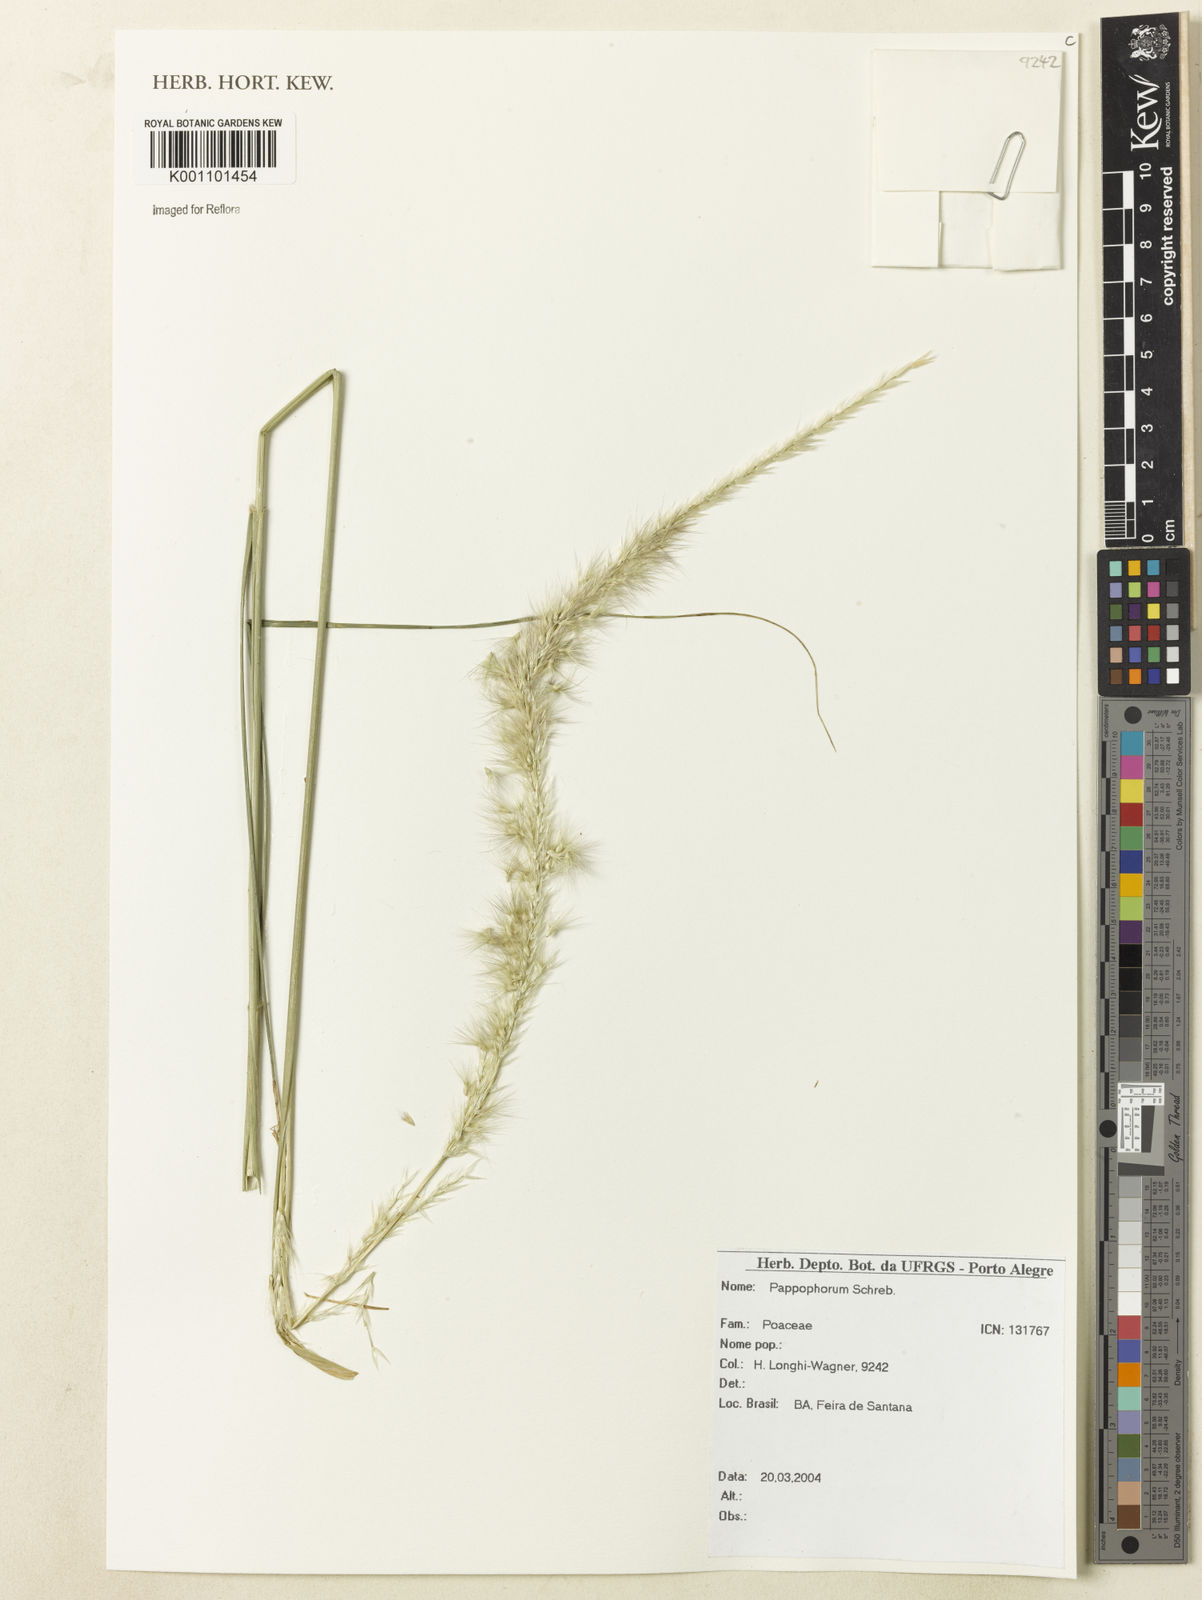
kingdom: Plantae
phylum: Tracheophyta
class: Liliopsida
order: Poales
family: Poaceae
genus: Pappophorum
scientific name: Pappophorum
